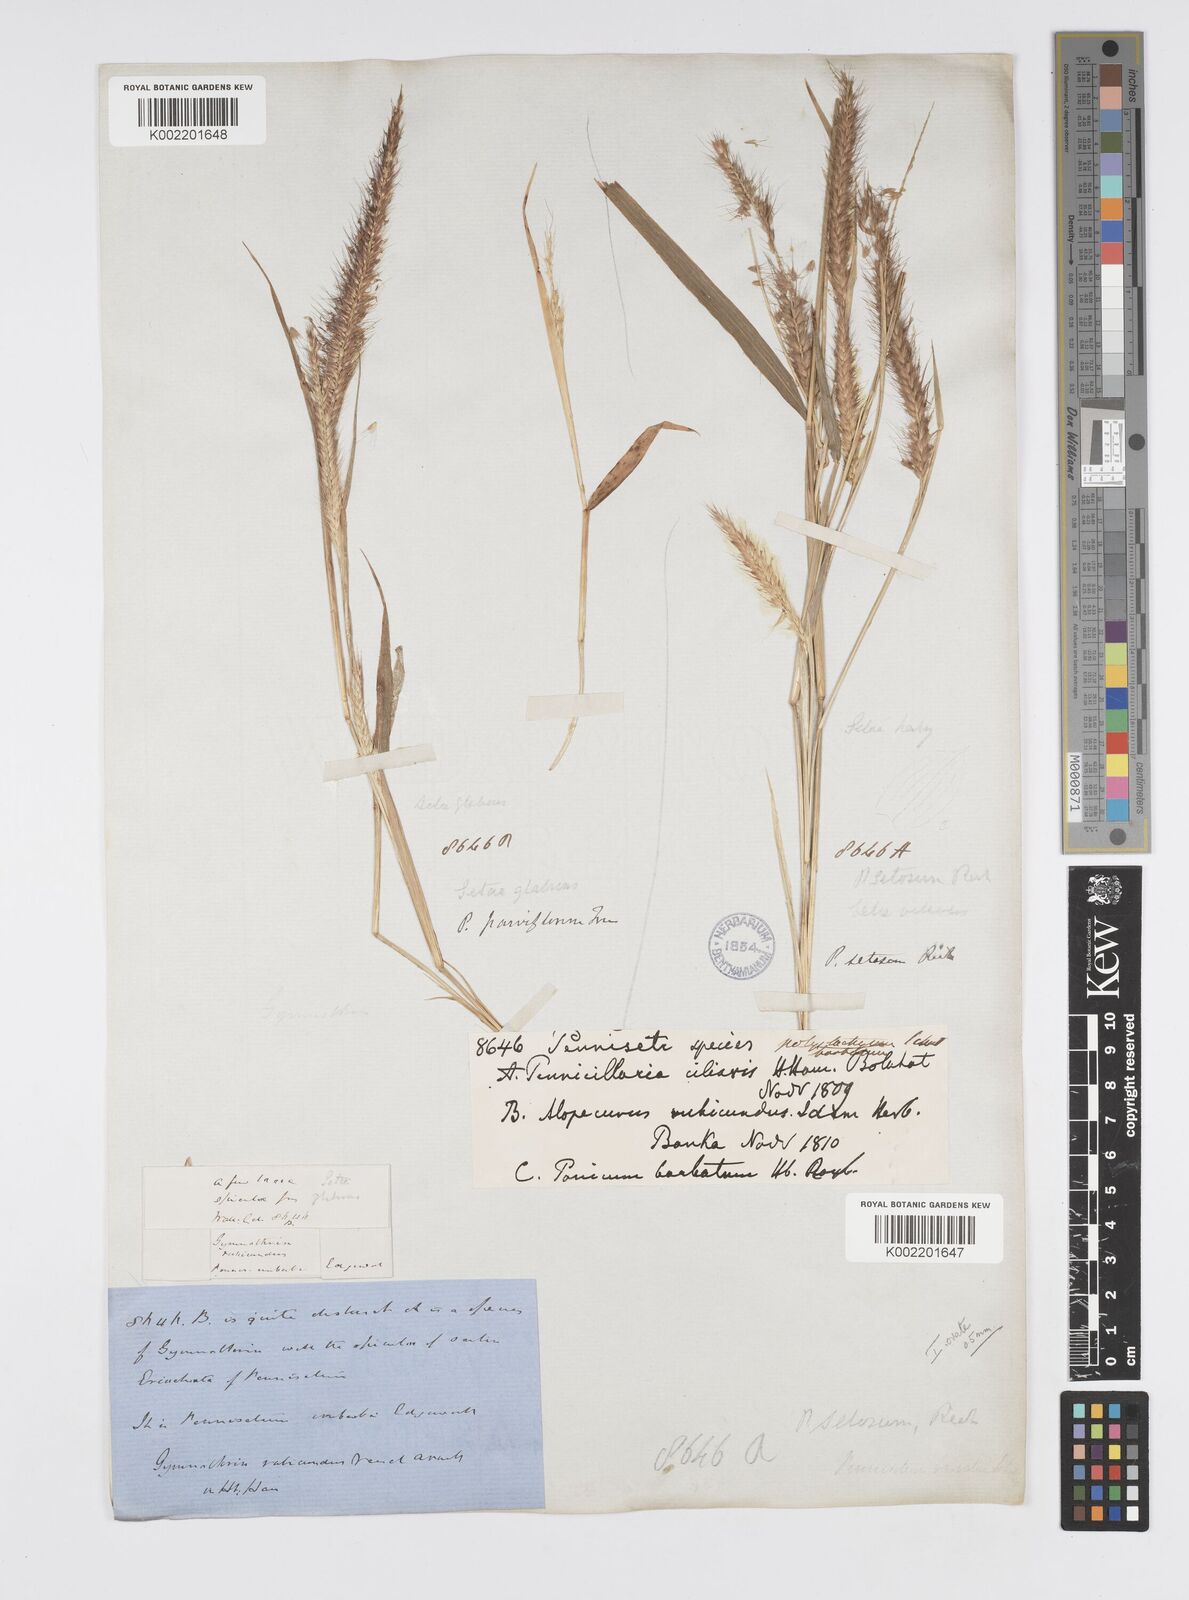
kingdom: Plantae
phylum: Tracheophyta
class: Liliopsida
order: Poales
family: Poaceae
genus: Setaria
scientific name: Setaria parviflora
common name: Knotroot bristle-grass
